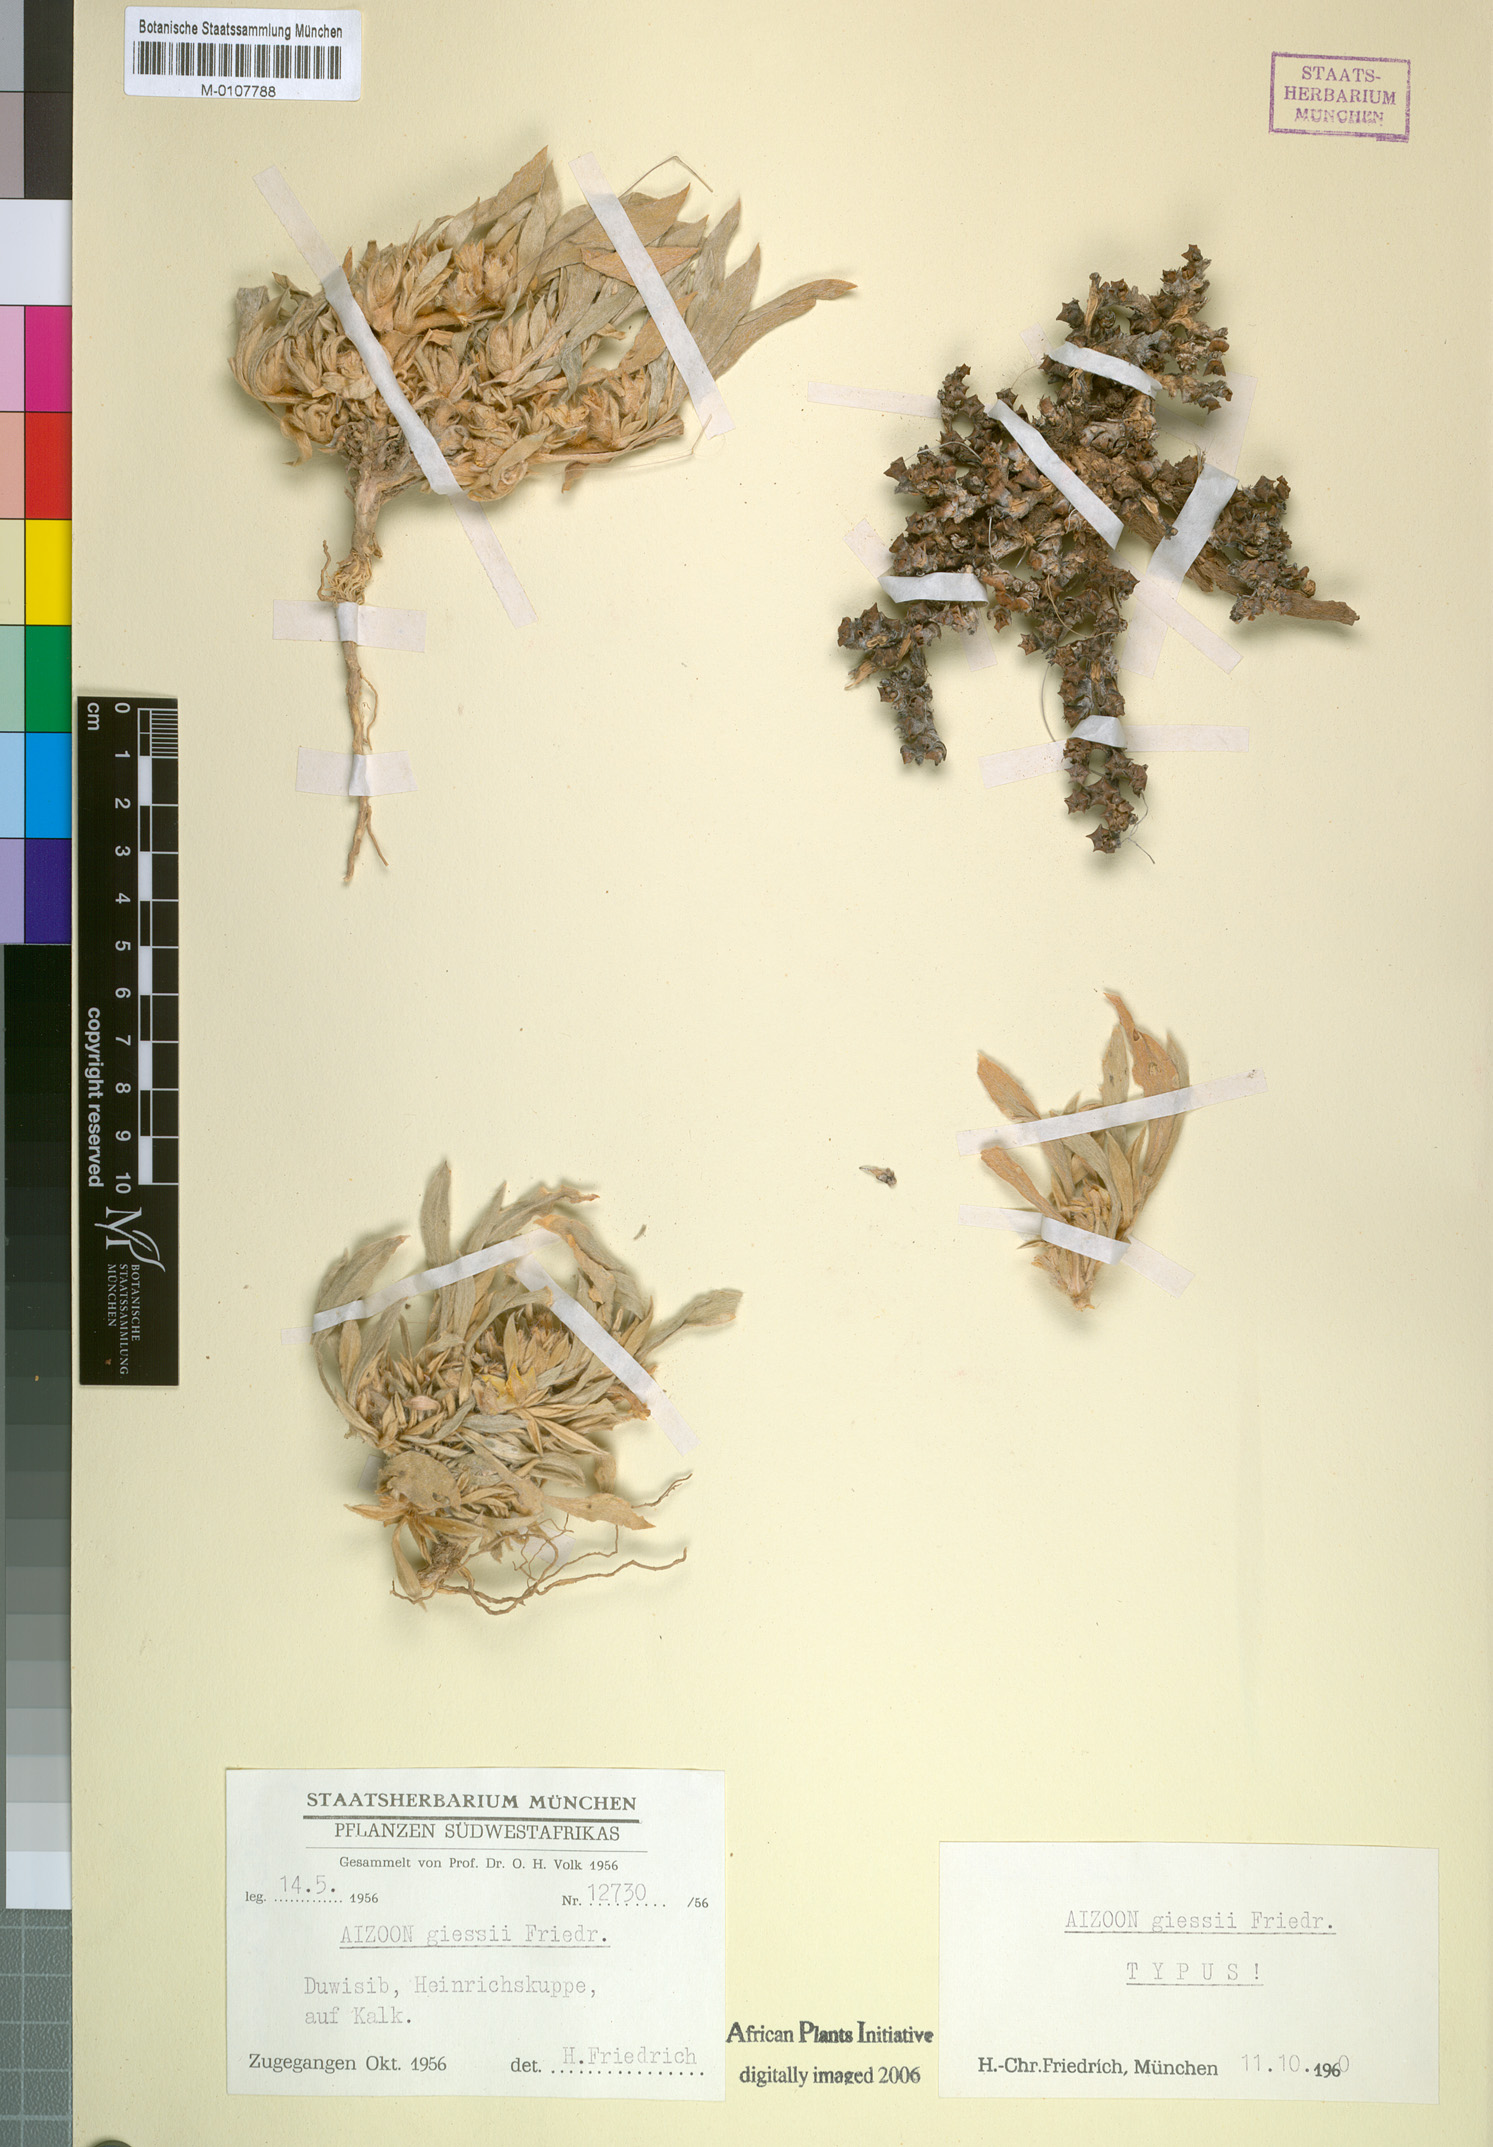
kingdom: Plantae
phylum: Tracheophyta
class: Magnoliopsida
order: Caryophyllales
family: Aizoaceae
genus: Aizoon
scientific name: Aizoon giessii
